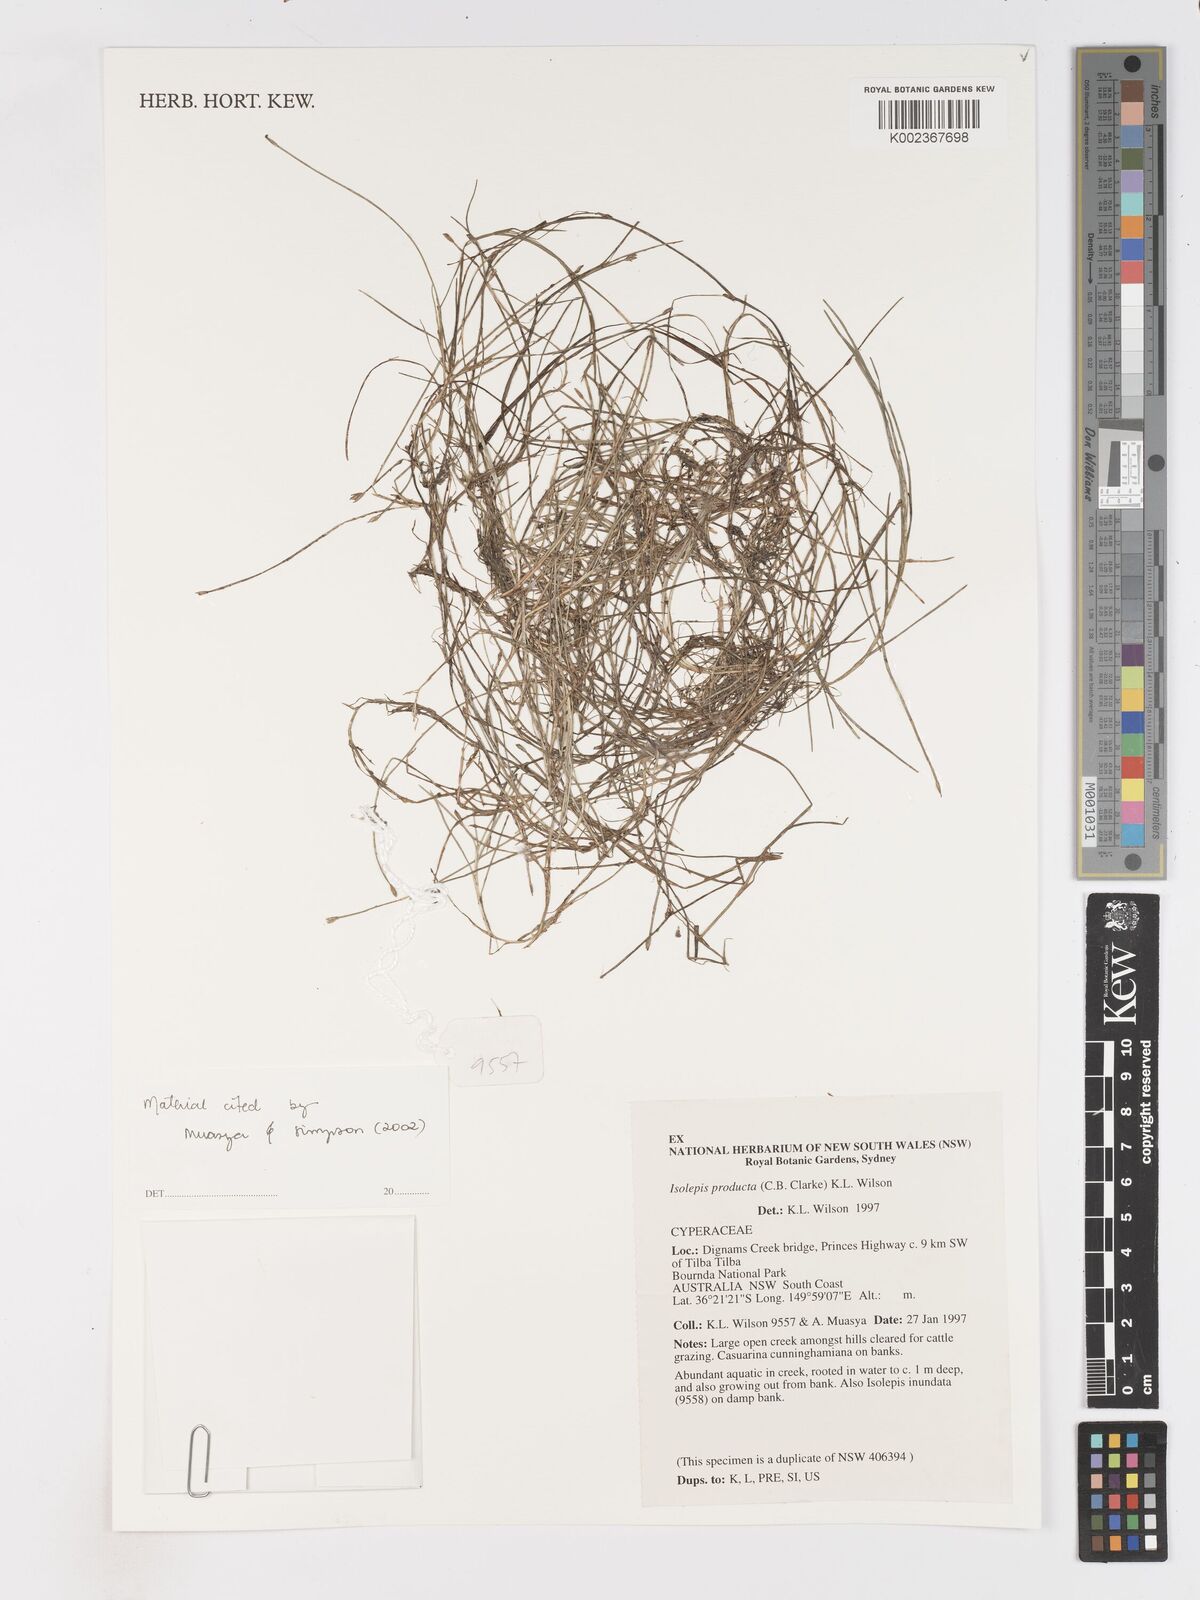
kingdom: Plantae
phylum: Tracheophyta
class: Liliopsida
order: Poales
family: Cyperaceae
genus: Isolepis
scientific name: Isolepis producta
